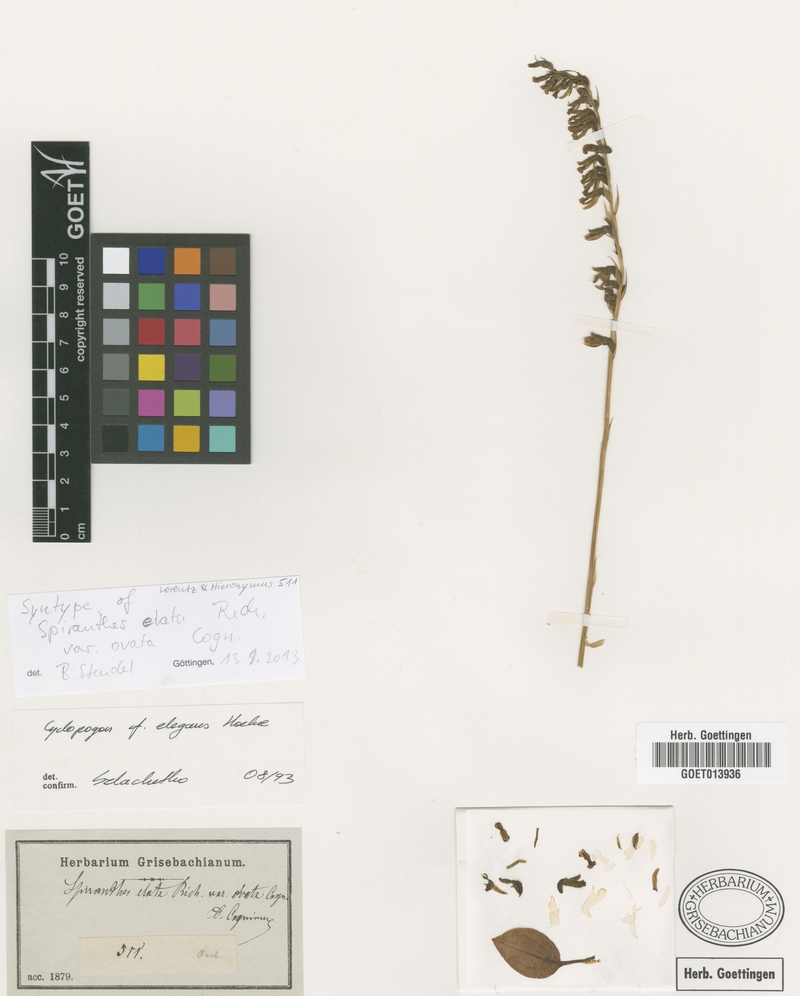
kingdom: Plantae
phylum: Tracheophyta
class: Liliopsida
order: Asparagales
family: Orchidaceae
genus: Cyclopogon
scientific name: Cyclopogon elatus
